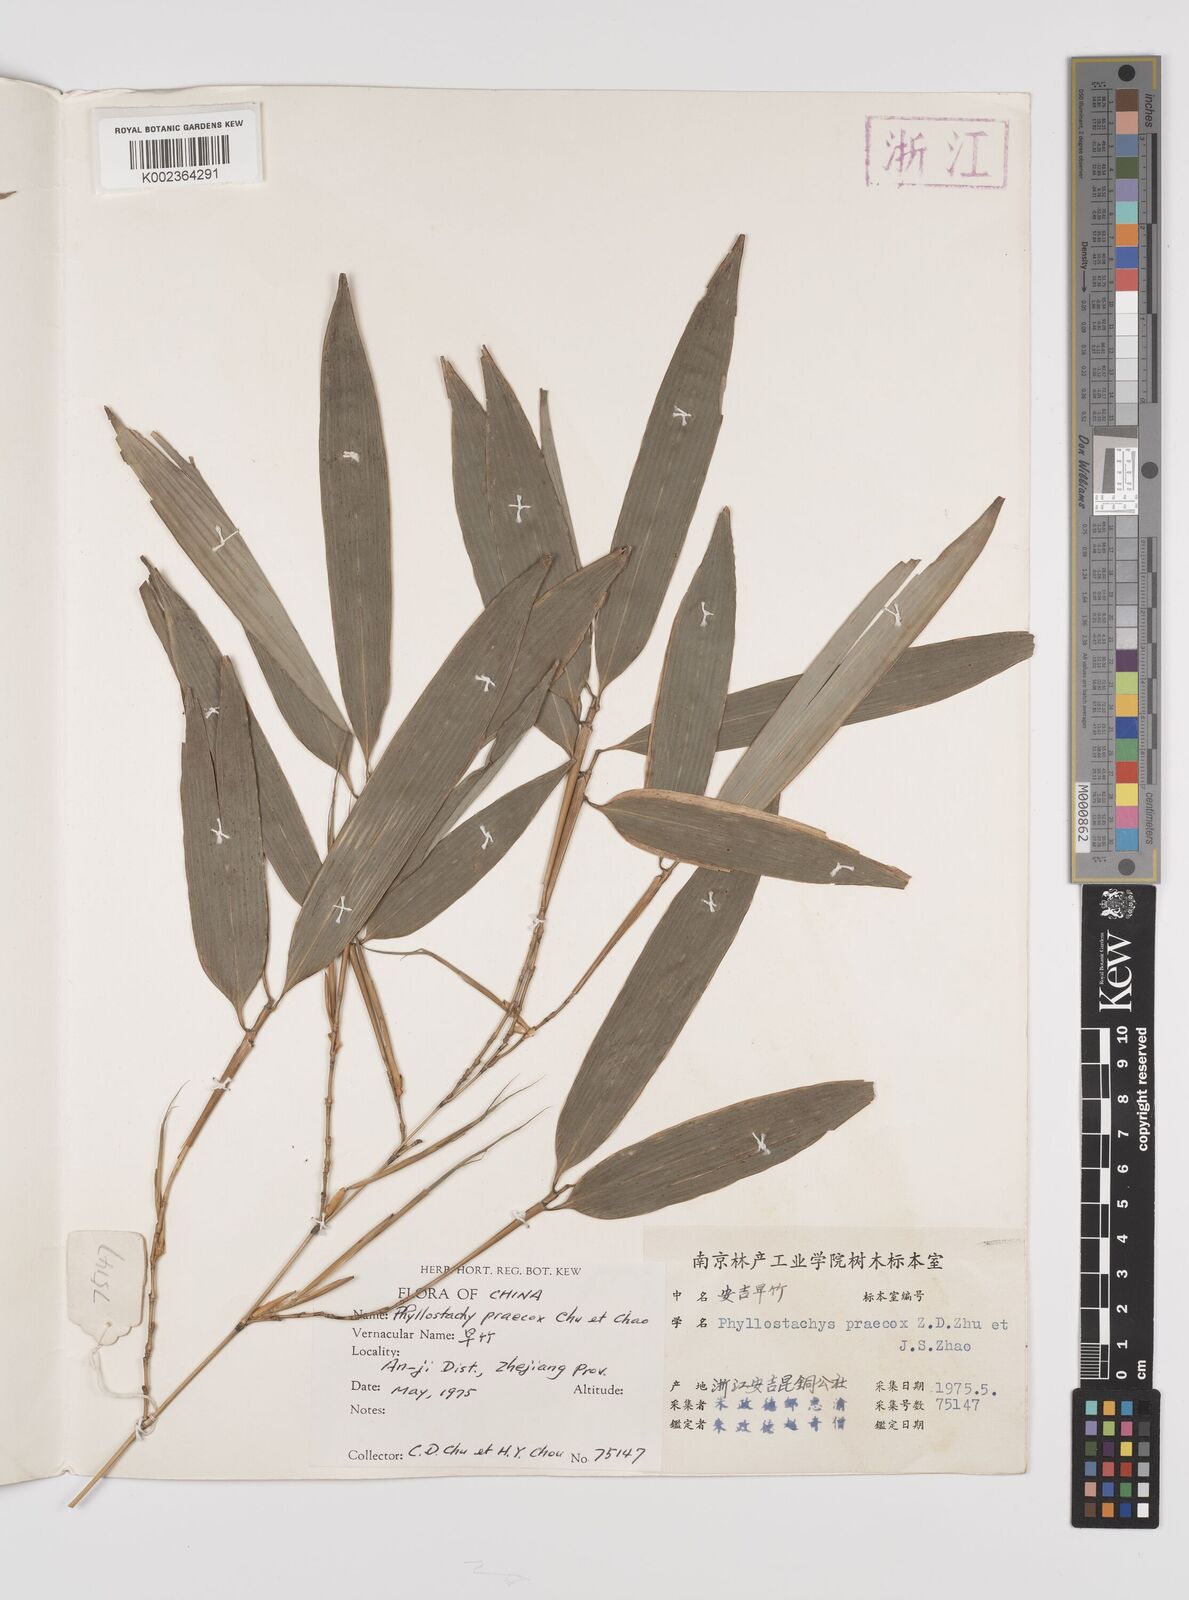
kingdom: Plantae
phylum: Tracheophyta
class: Liliopsida
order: Poales
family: Poaceae
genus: Phyllostachys
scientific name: Phyllostachys violascens
